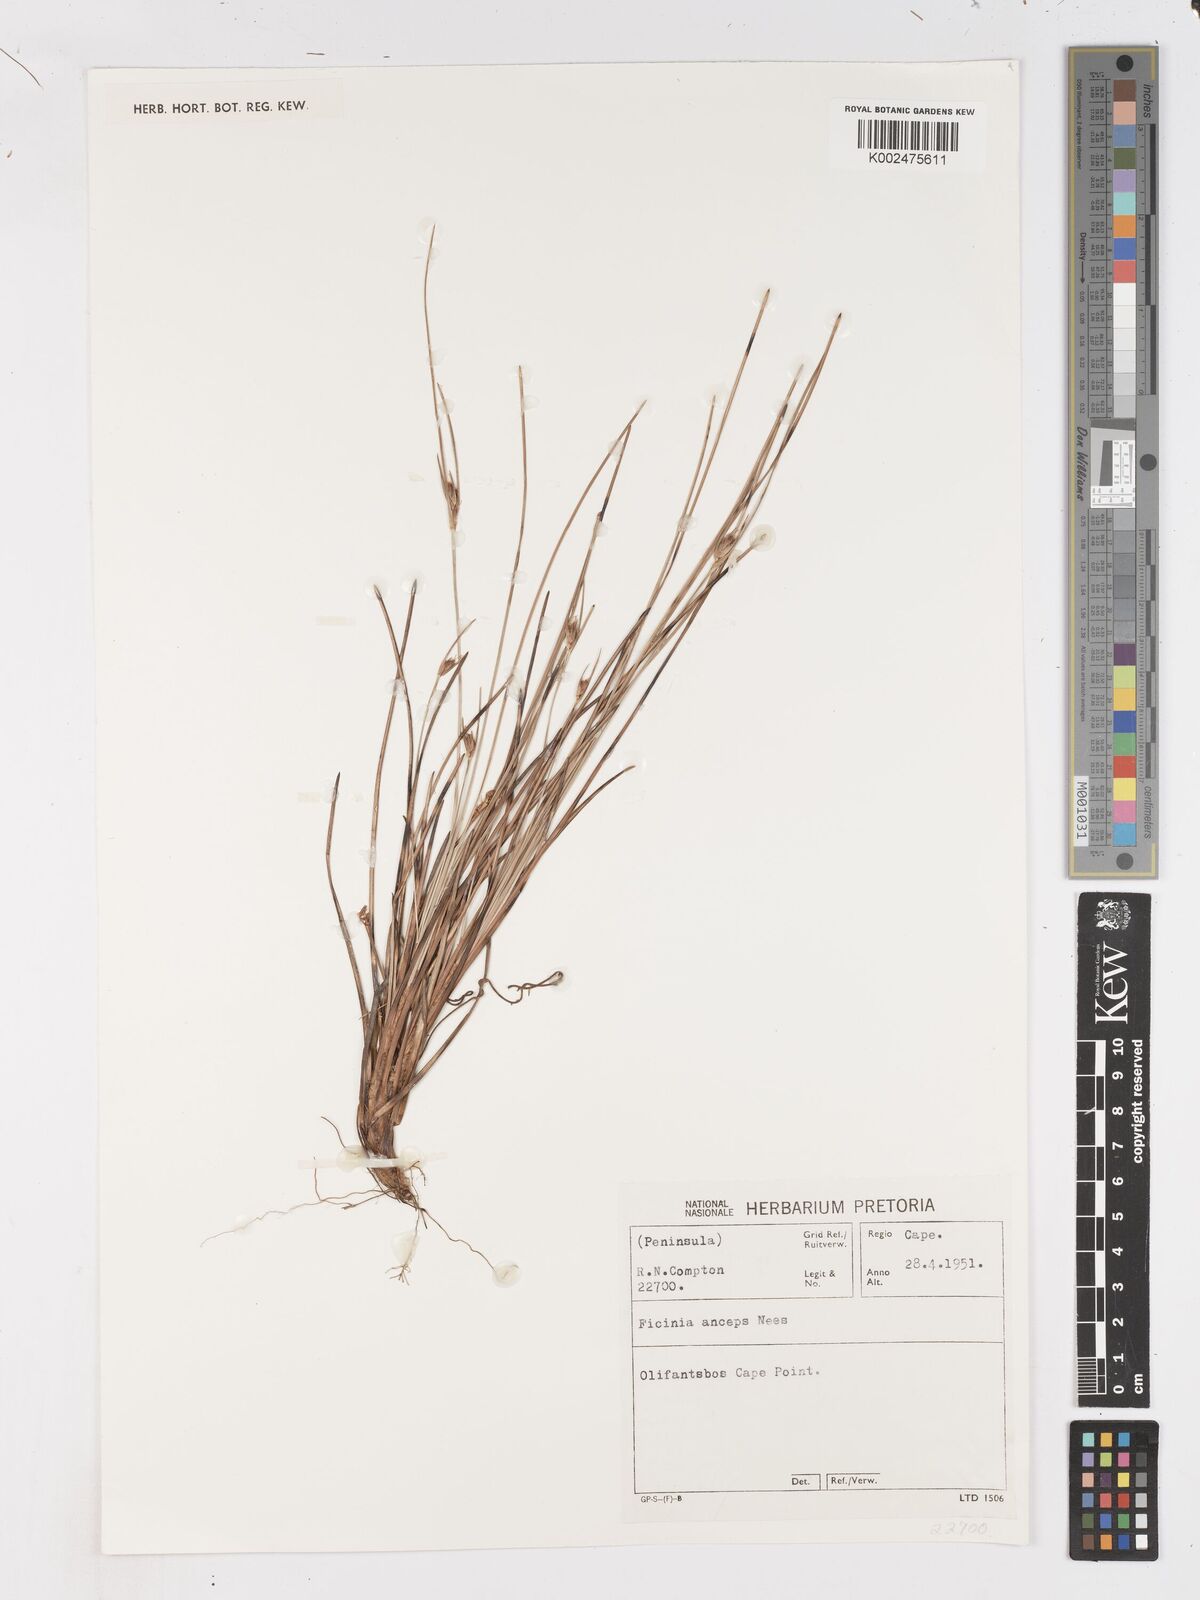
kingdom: Plantae
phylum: Tracheophyta
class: Liliopsida
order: Poales
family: Cyperaceae
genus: Ficinia
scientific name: Ficinia anceps
